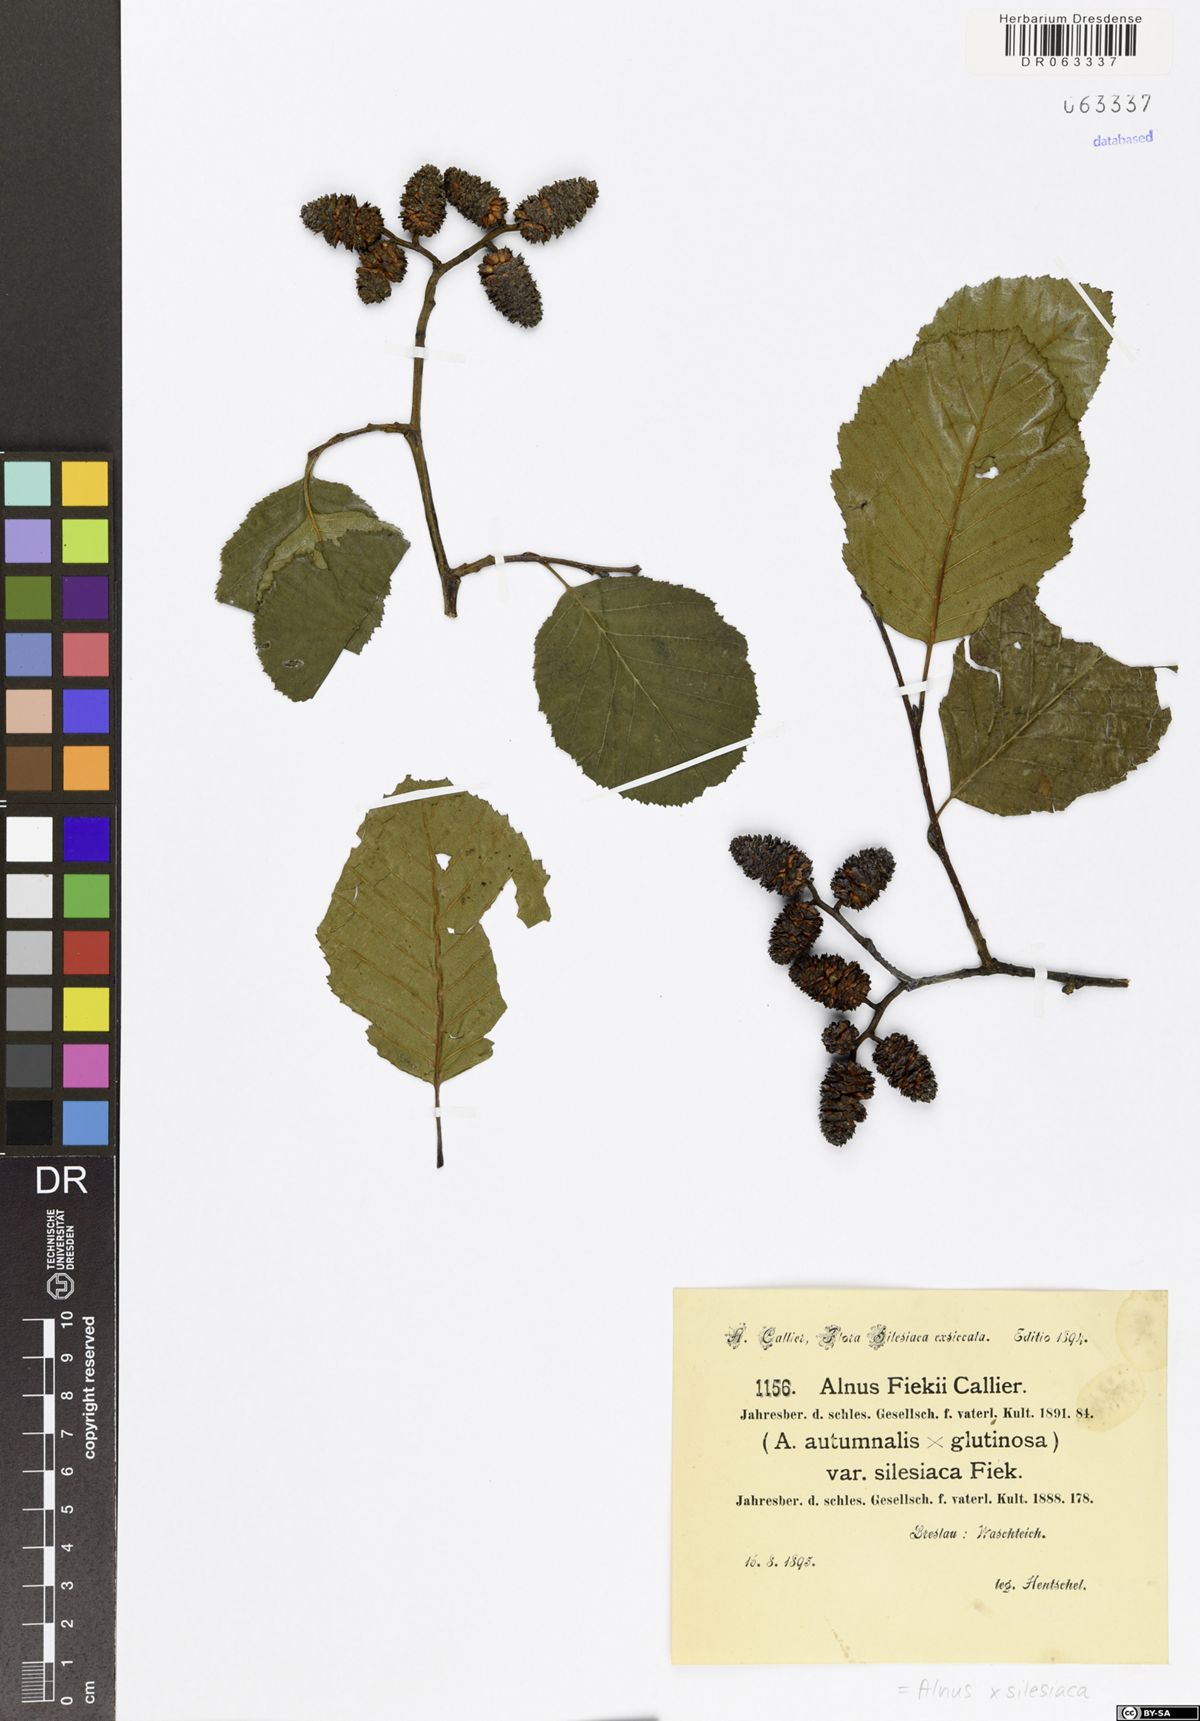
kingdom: Plantae
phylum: Tracheophyta
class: Magnoliopsida
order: Fagales
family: Betulaceae
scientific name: Betulaceae
